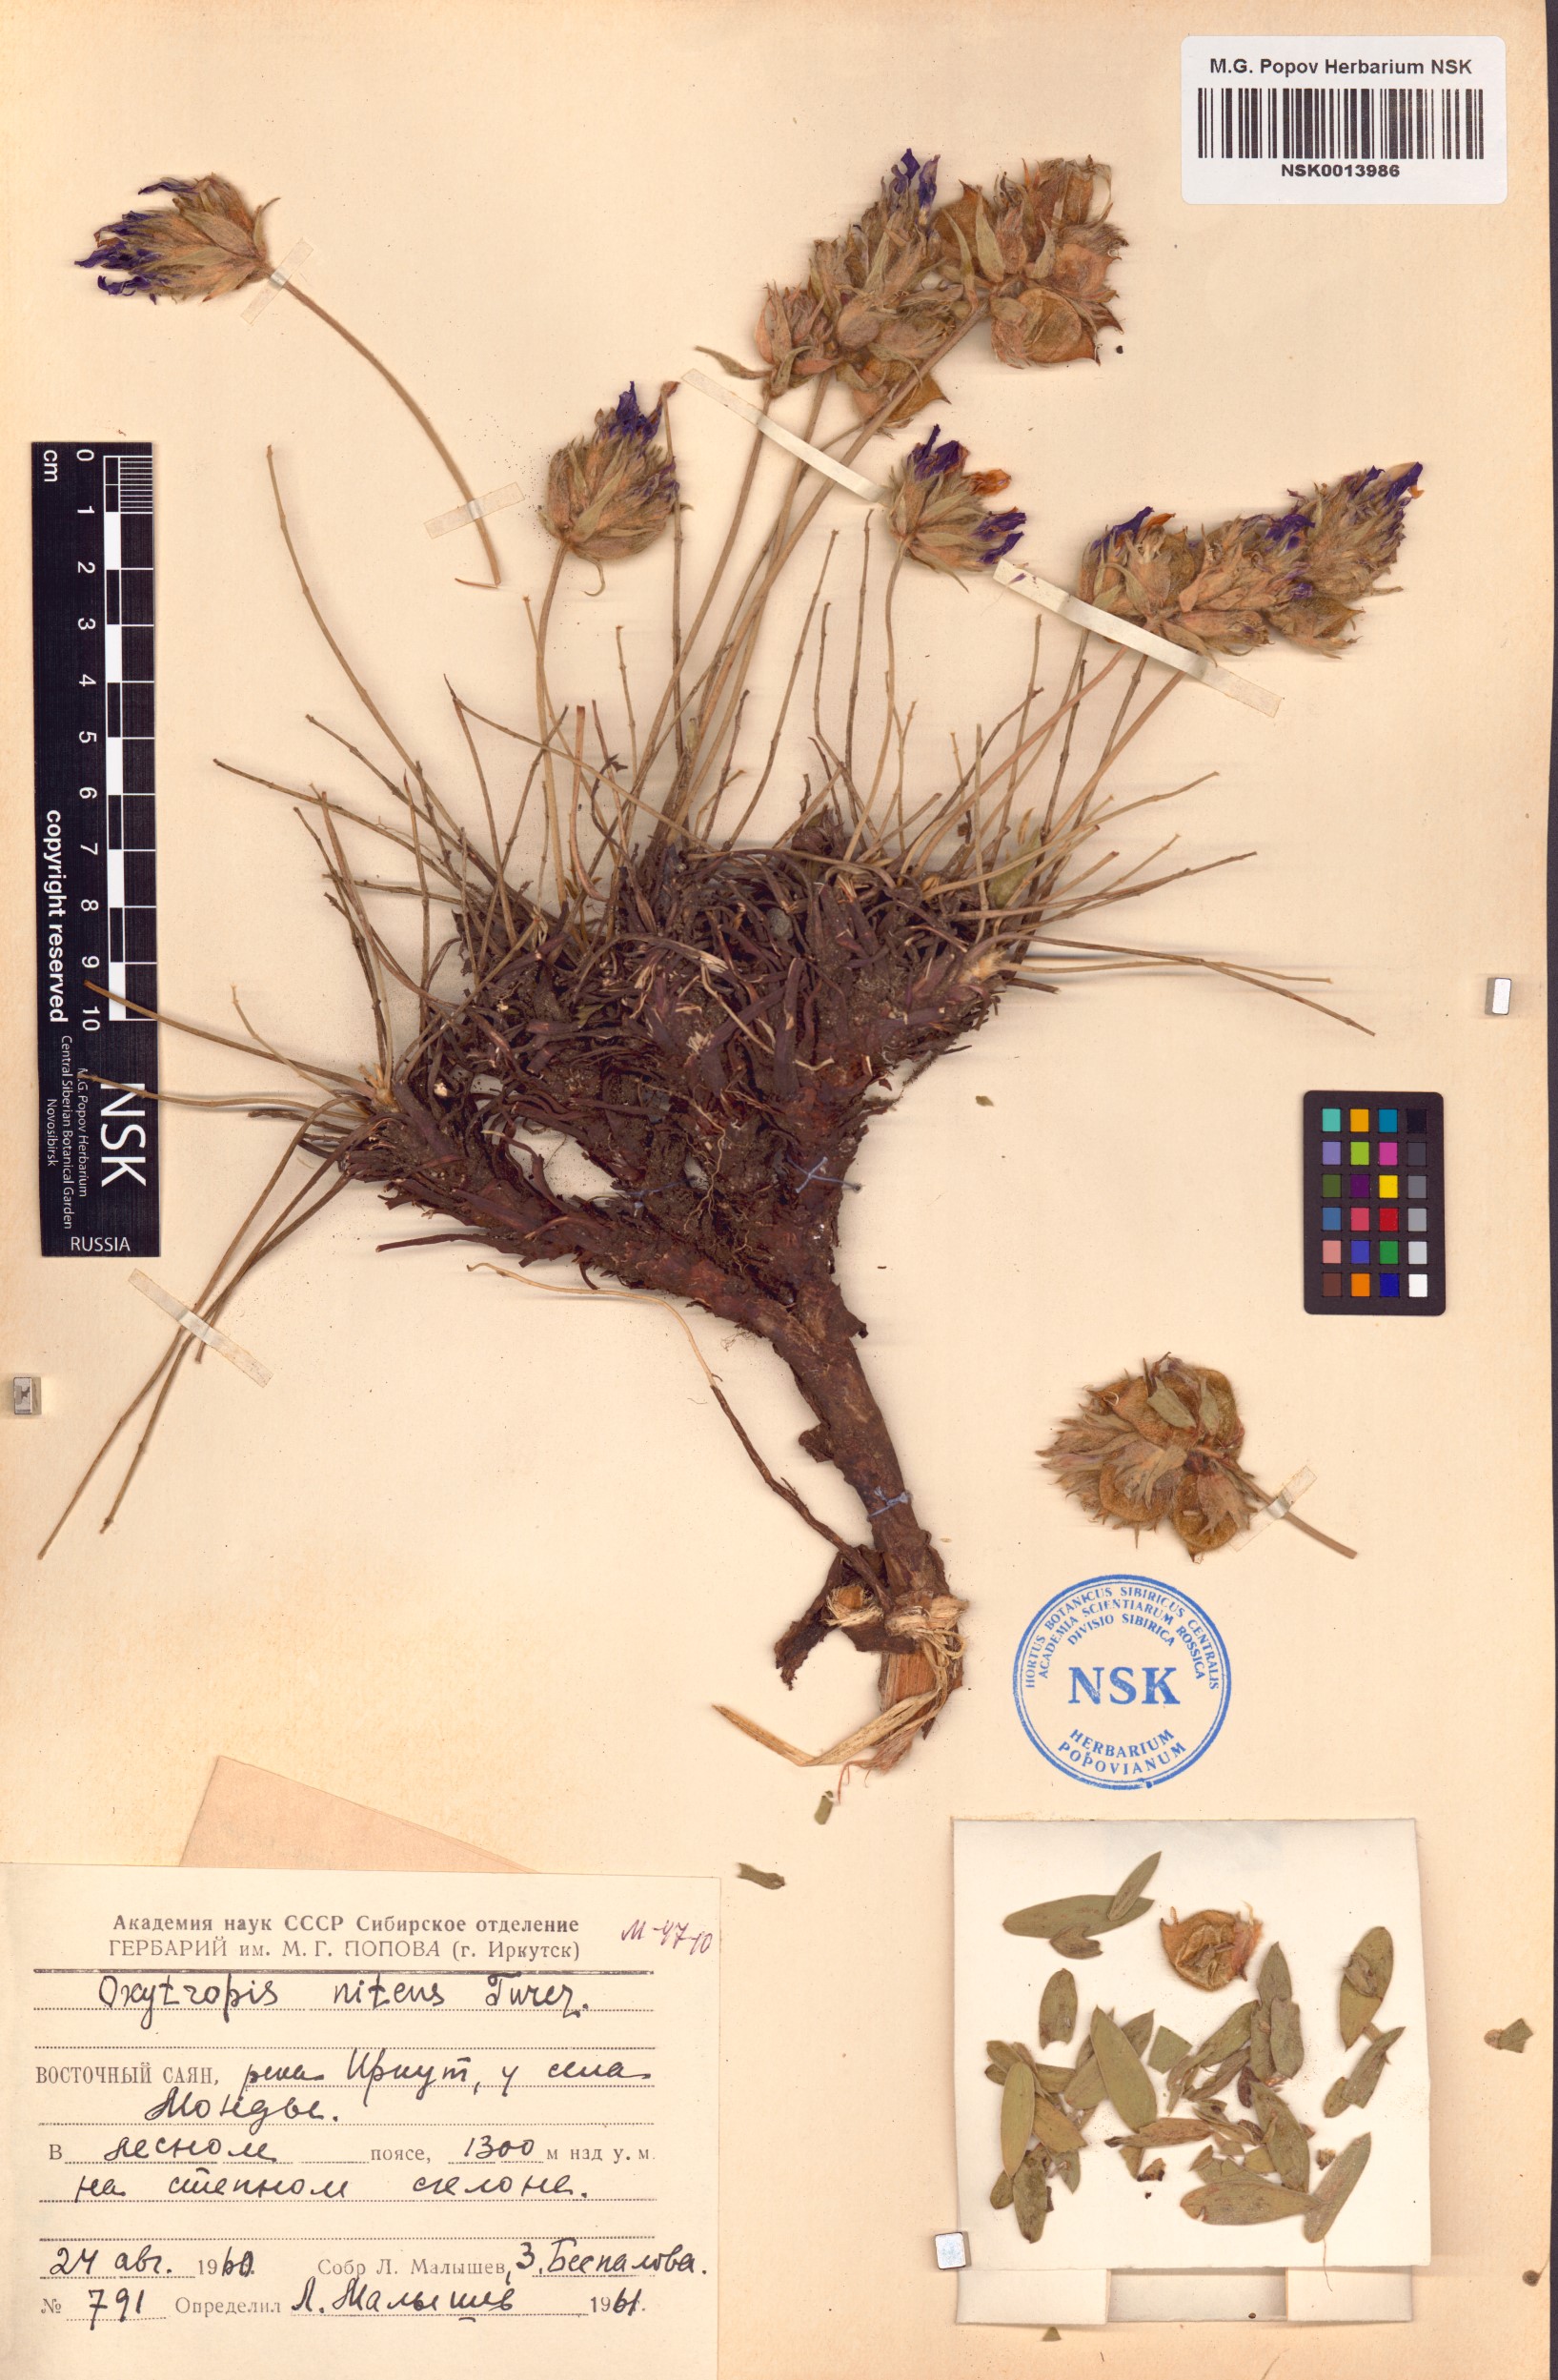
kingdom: Plantae
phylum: Tracheophyta
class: Magnoliopsida
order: Fabales
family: Fabaceae
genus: Oxytropis
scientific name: Oxytropis nitens
